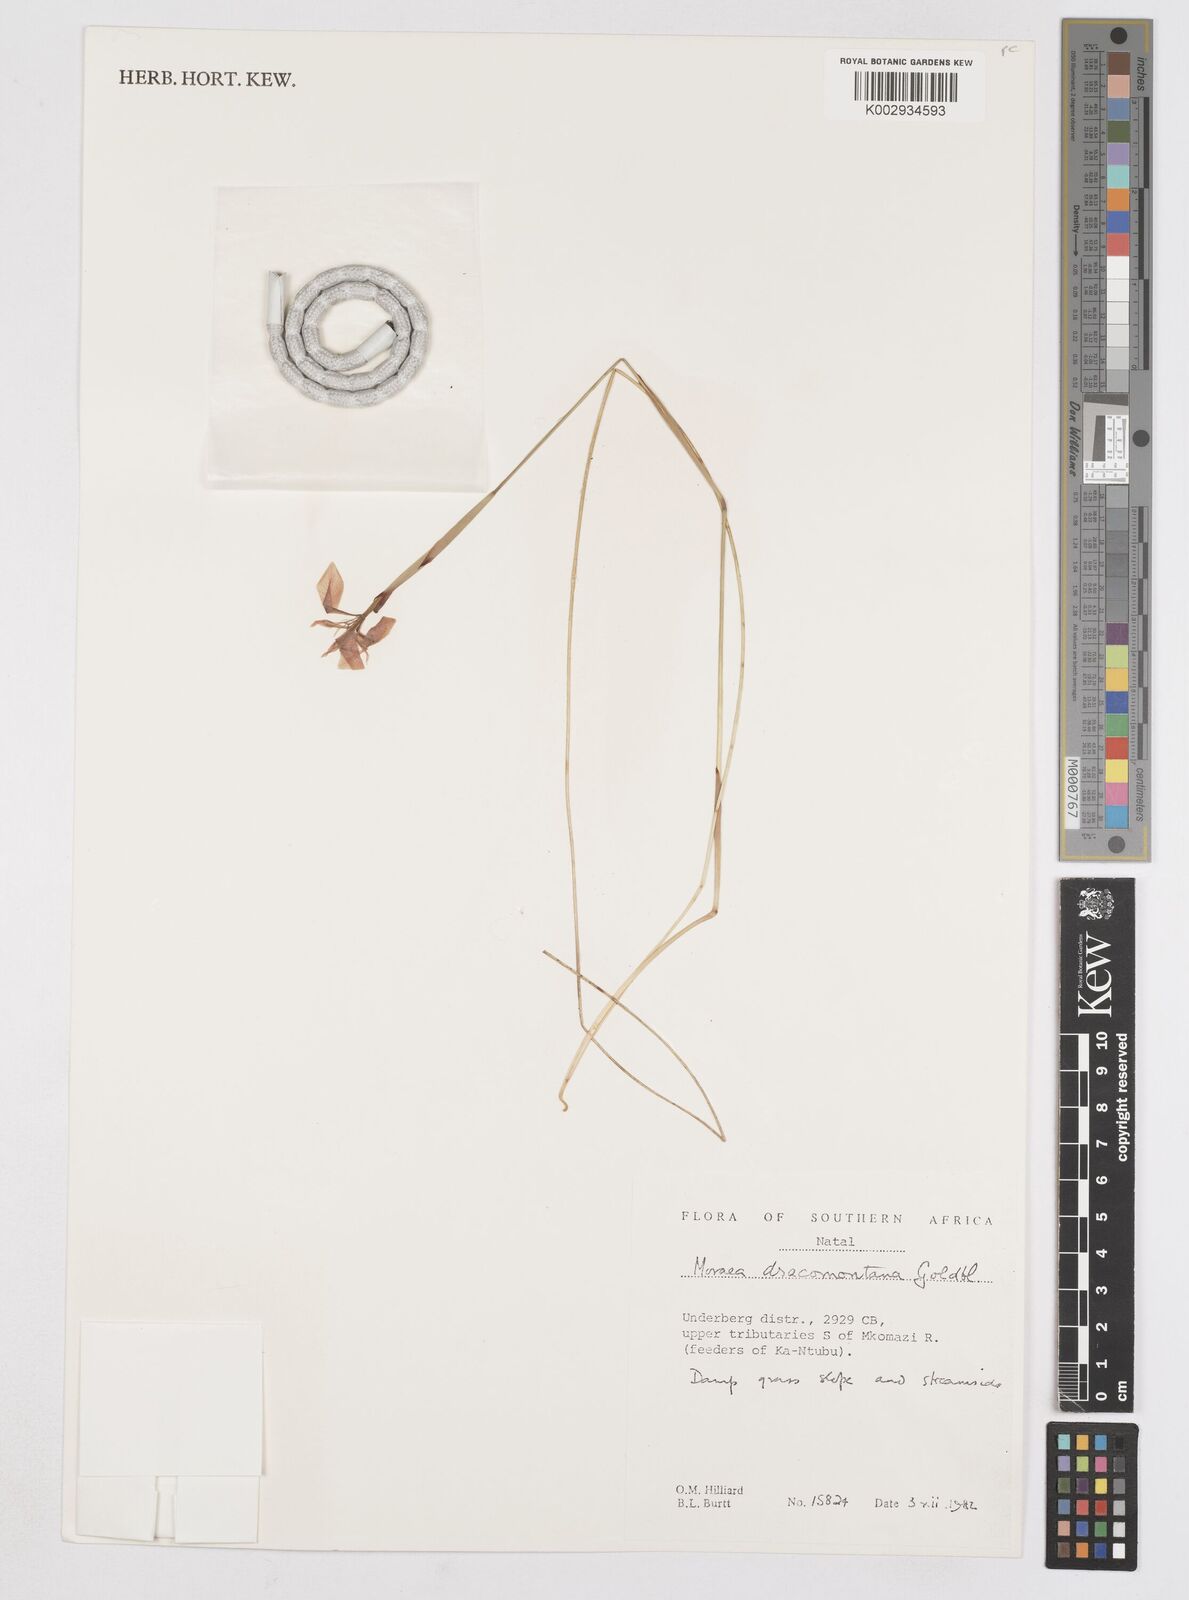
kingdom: Plantae
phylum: Tracheophyta
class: Liliopsida
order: Asparagales
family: Iridaceae
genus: Moraea
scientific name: Moraea dracomontana
